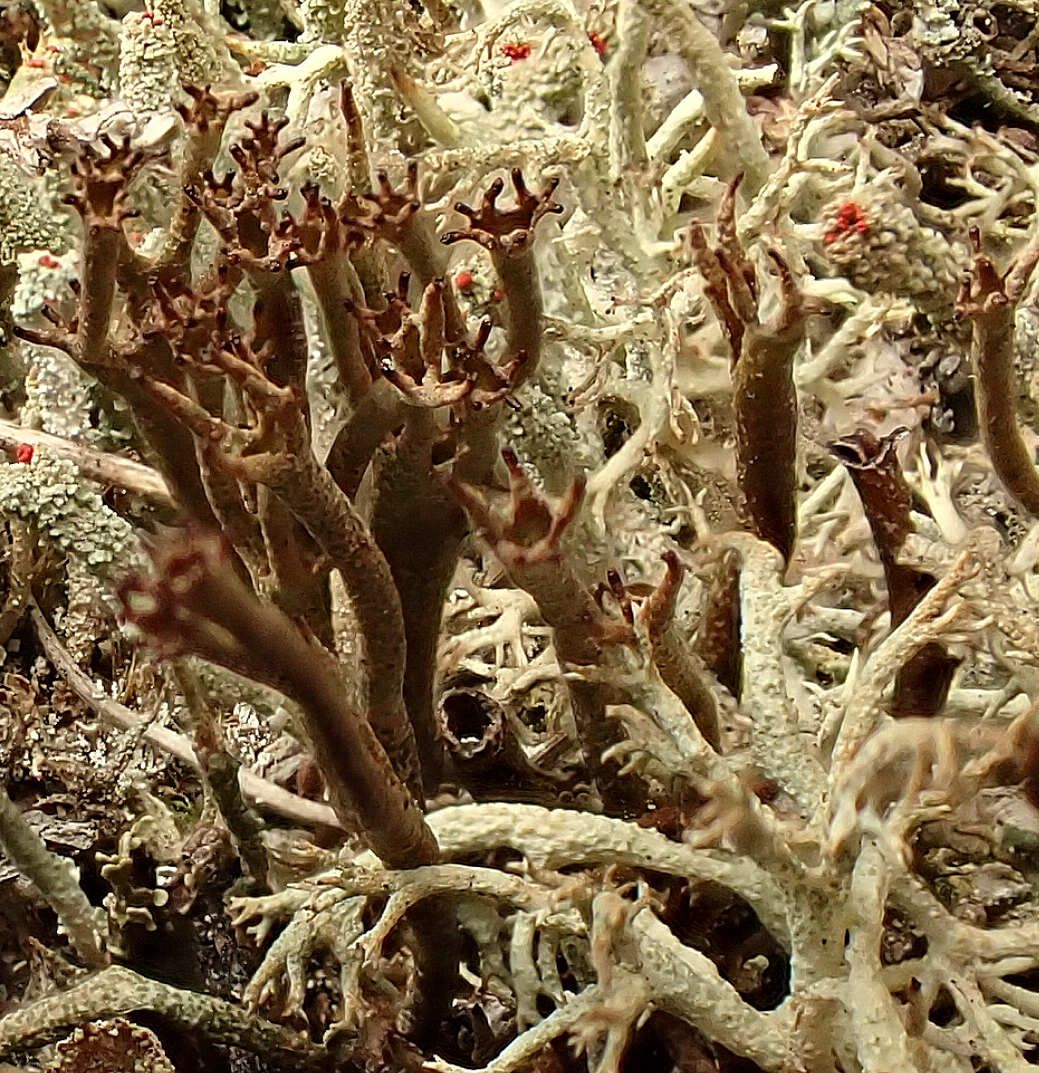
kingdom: Fungi
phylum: Ascomycota
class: Lecanoromycetes
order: Lecanorales
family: Cladoniaceae
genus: Cladonia
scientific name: Cladonia crispata
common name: takket bægerlav
